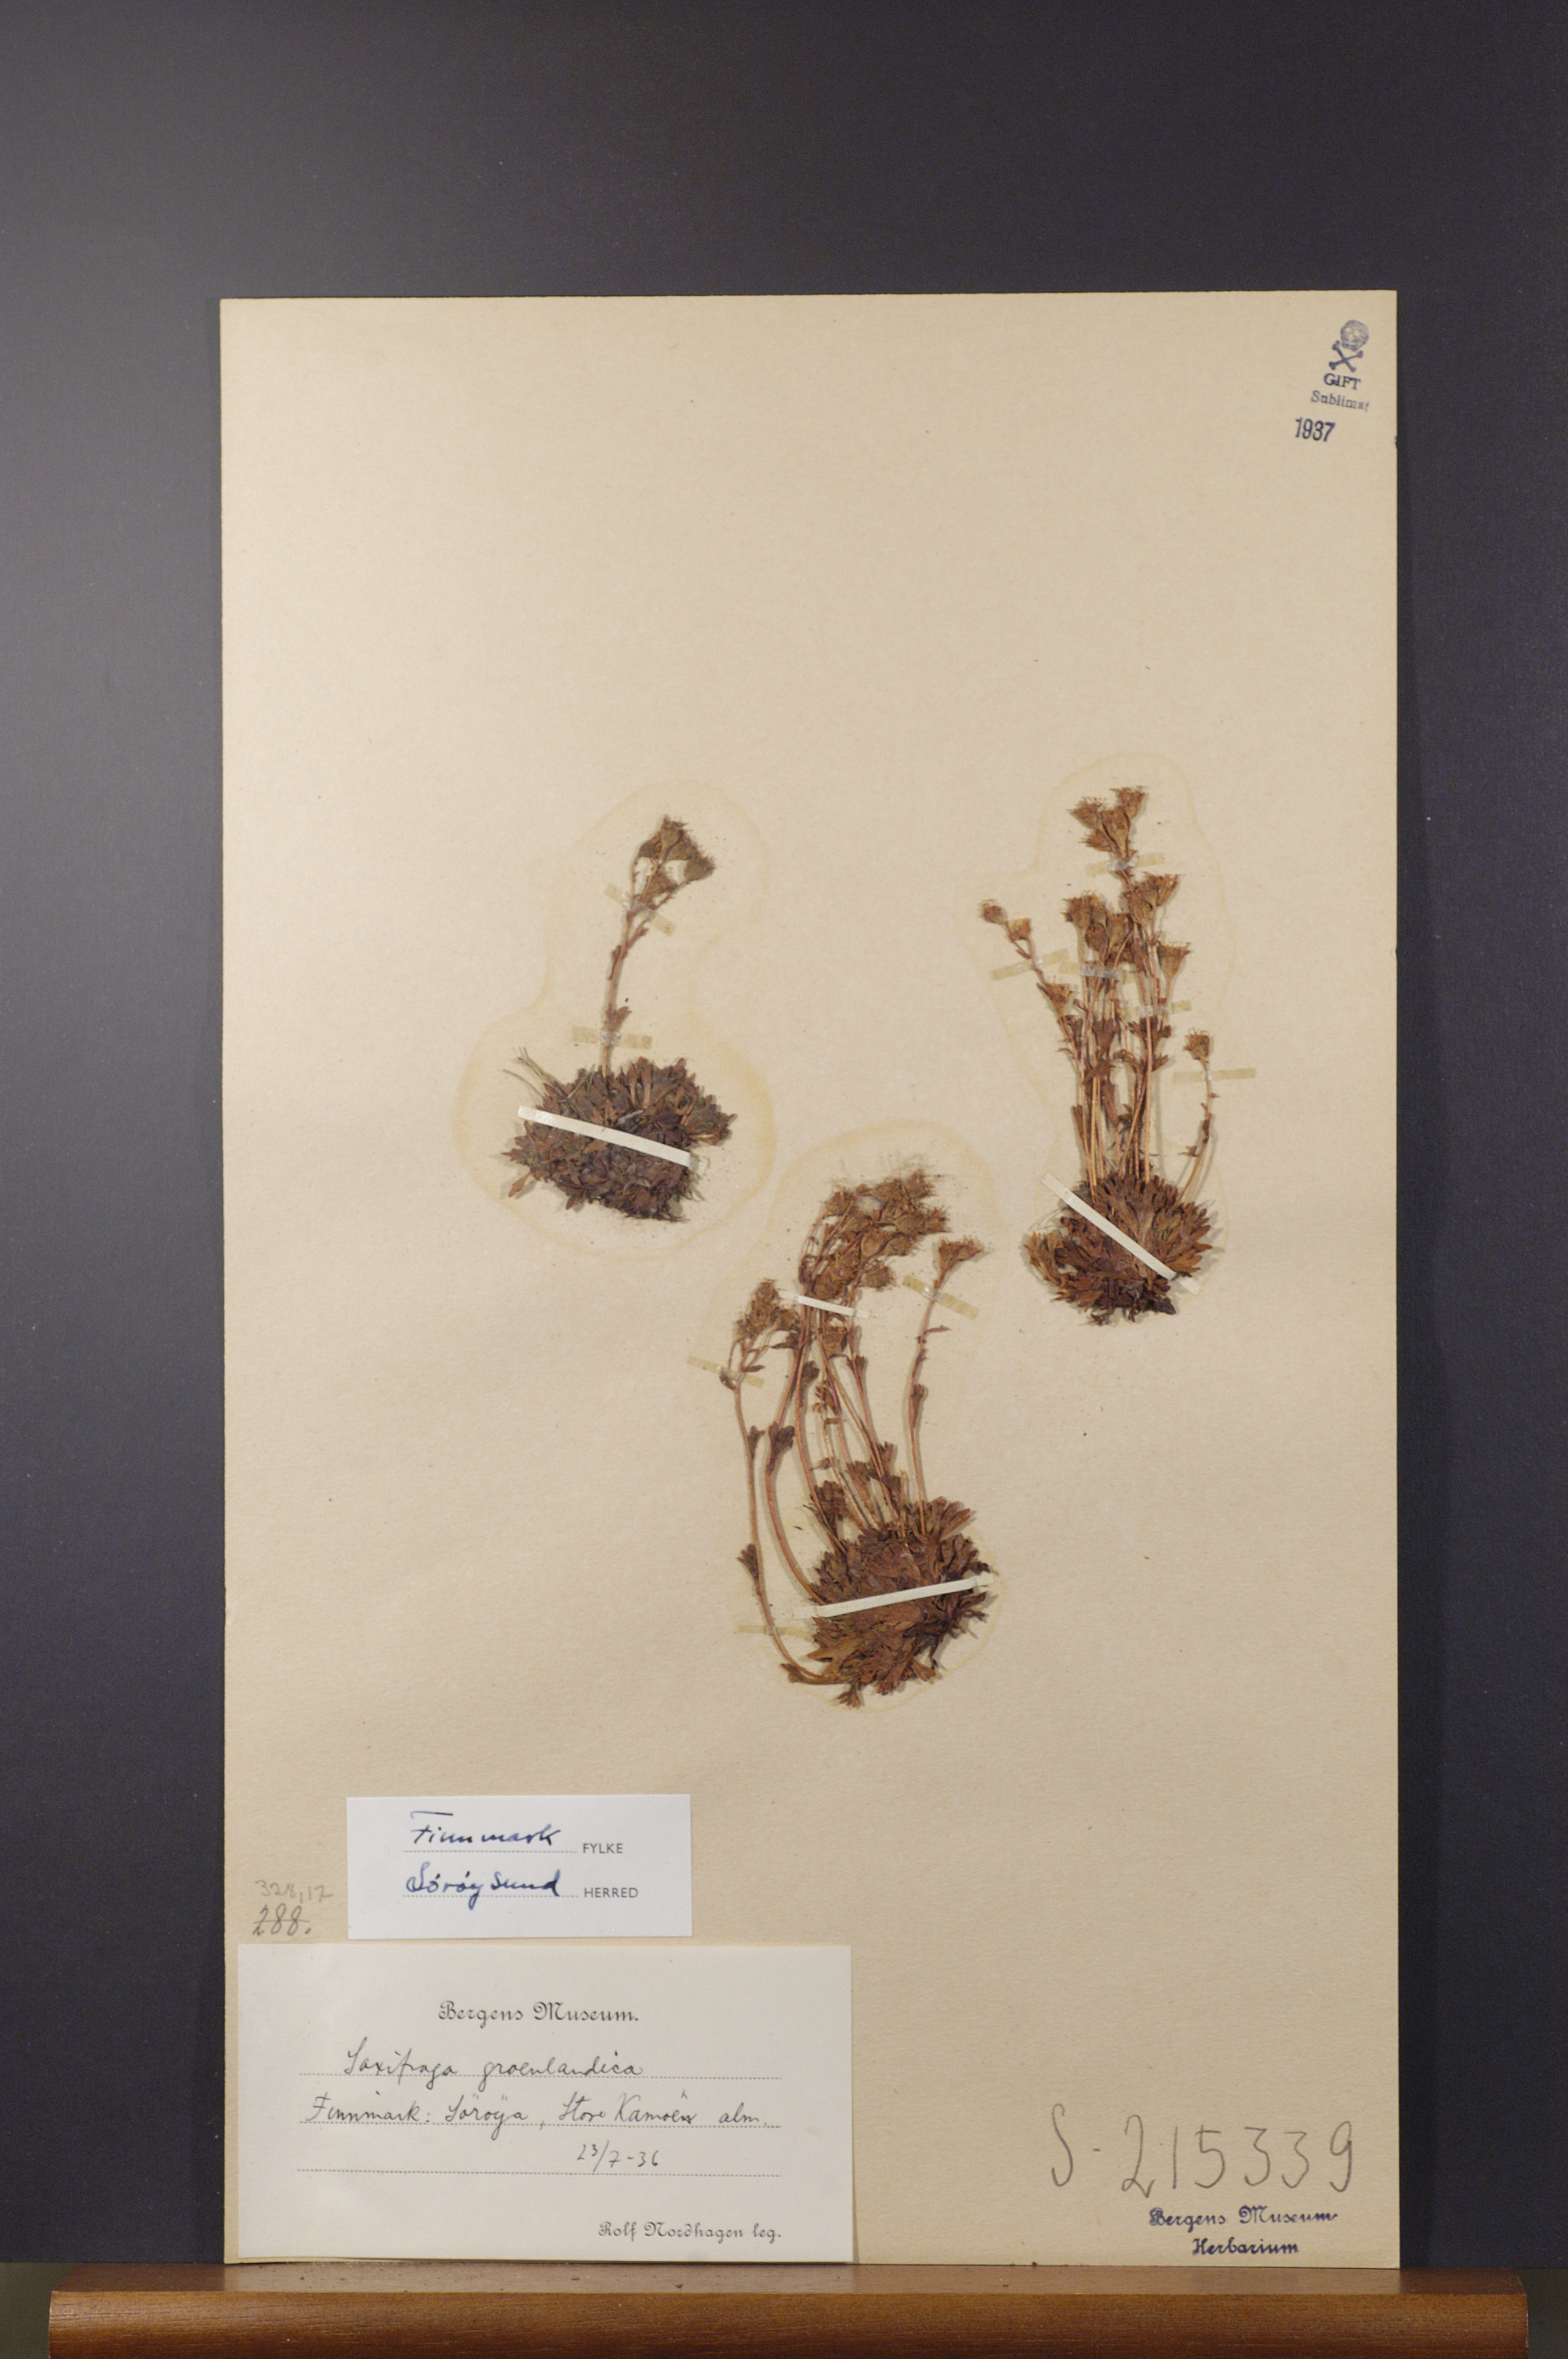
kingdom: Plantae
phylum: Tracheophyta
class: Magnoliopsida
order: Saxifragales
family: Saxifragaceae
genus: Saxifraga
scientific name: Saxifraga cespitosa
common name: Tufted saxifrage
